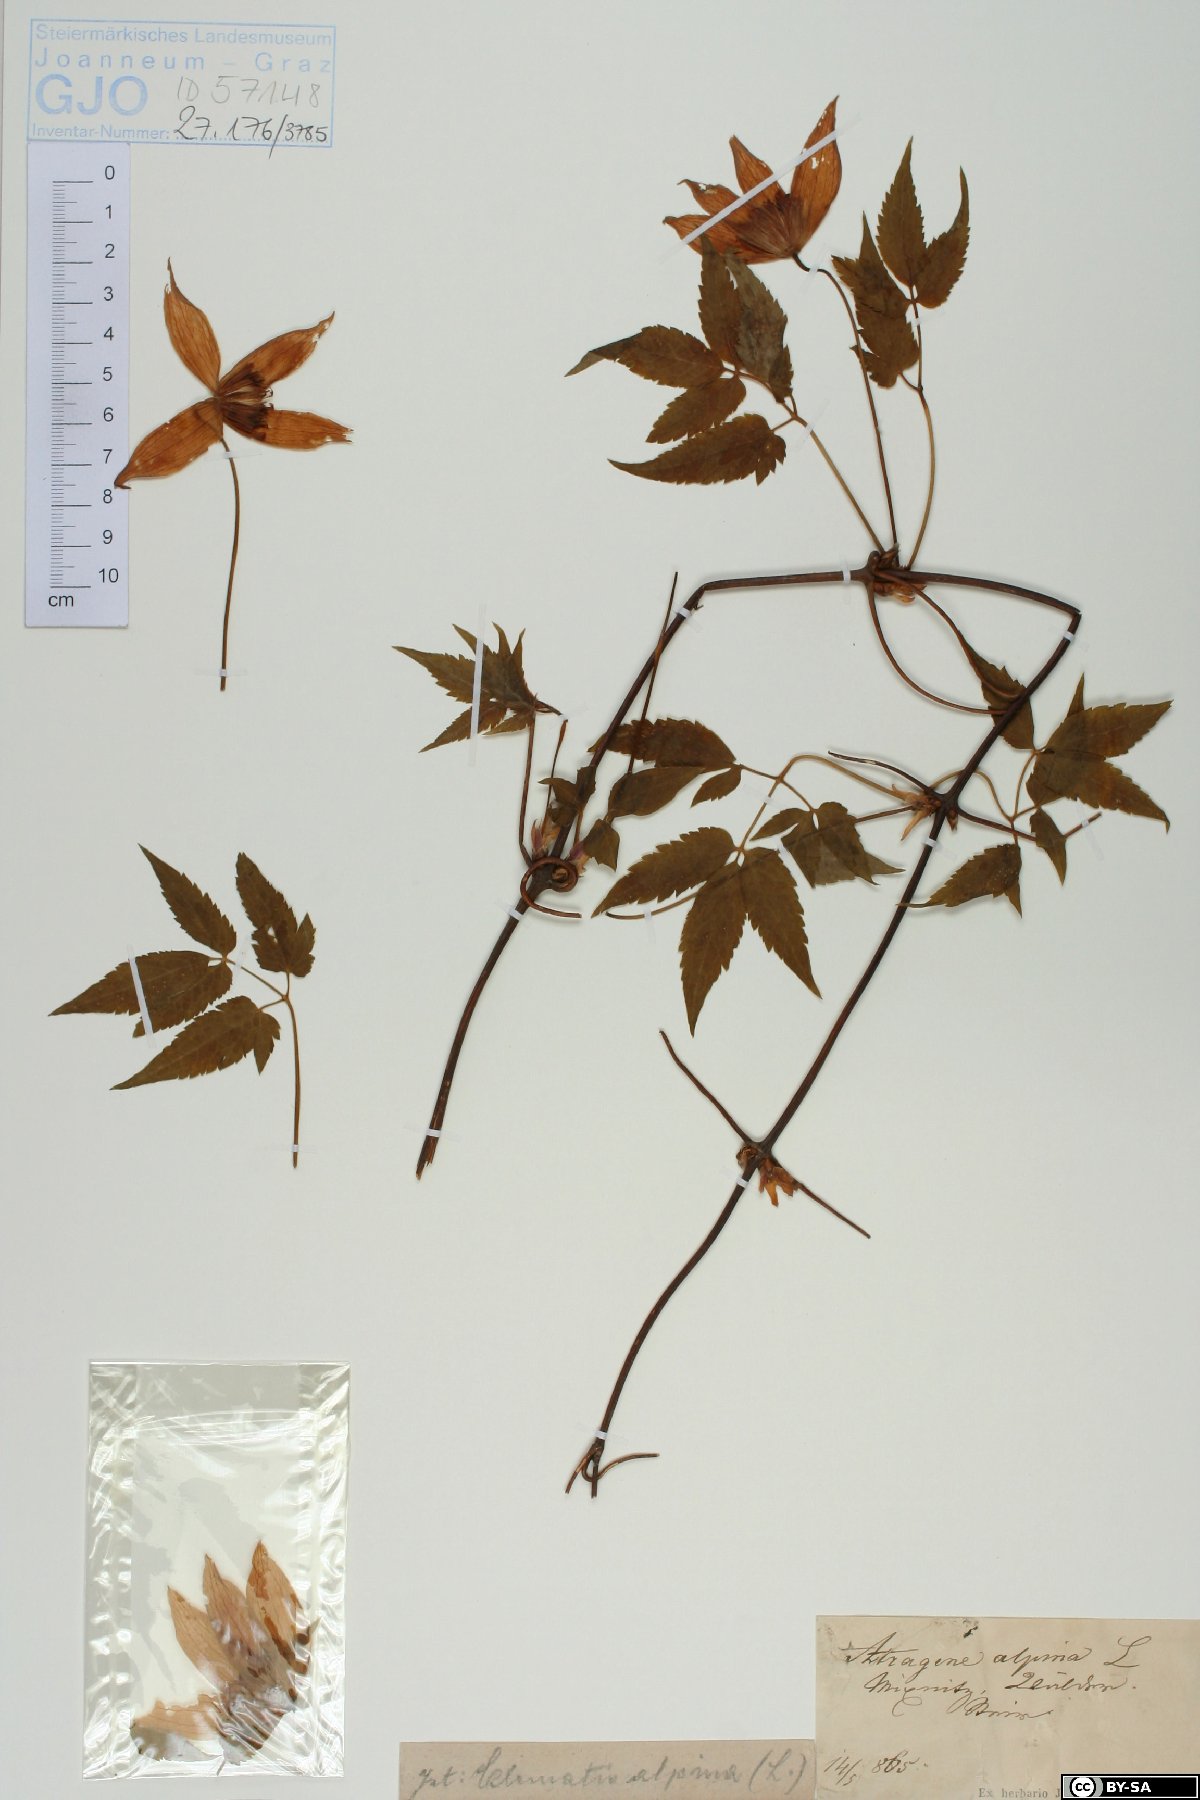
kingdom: Plantae
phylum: Tracheophyta
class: Magnoliopsida
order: Ranunculales
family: Ranunculaceae
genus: Clematis
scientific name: Clematis alpina
